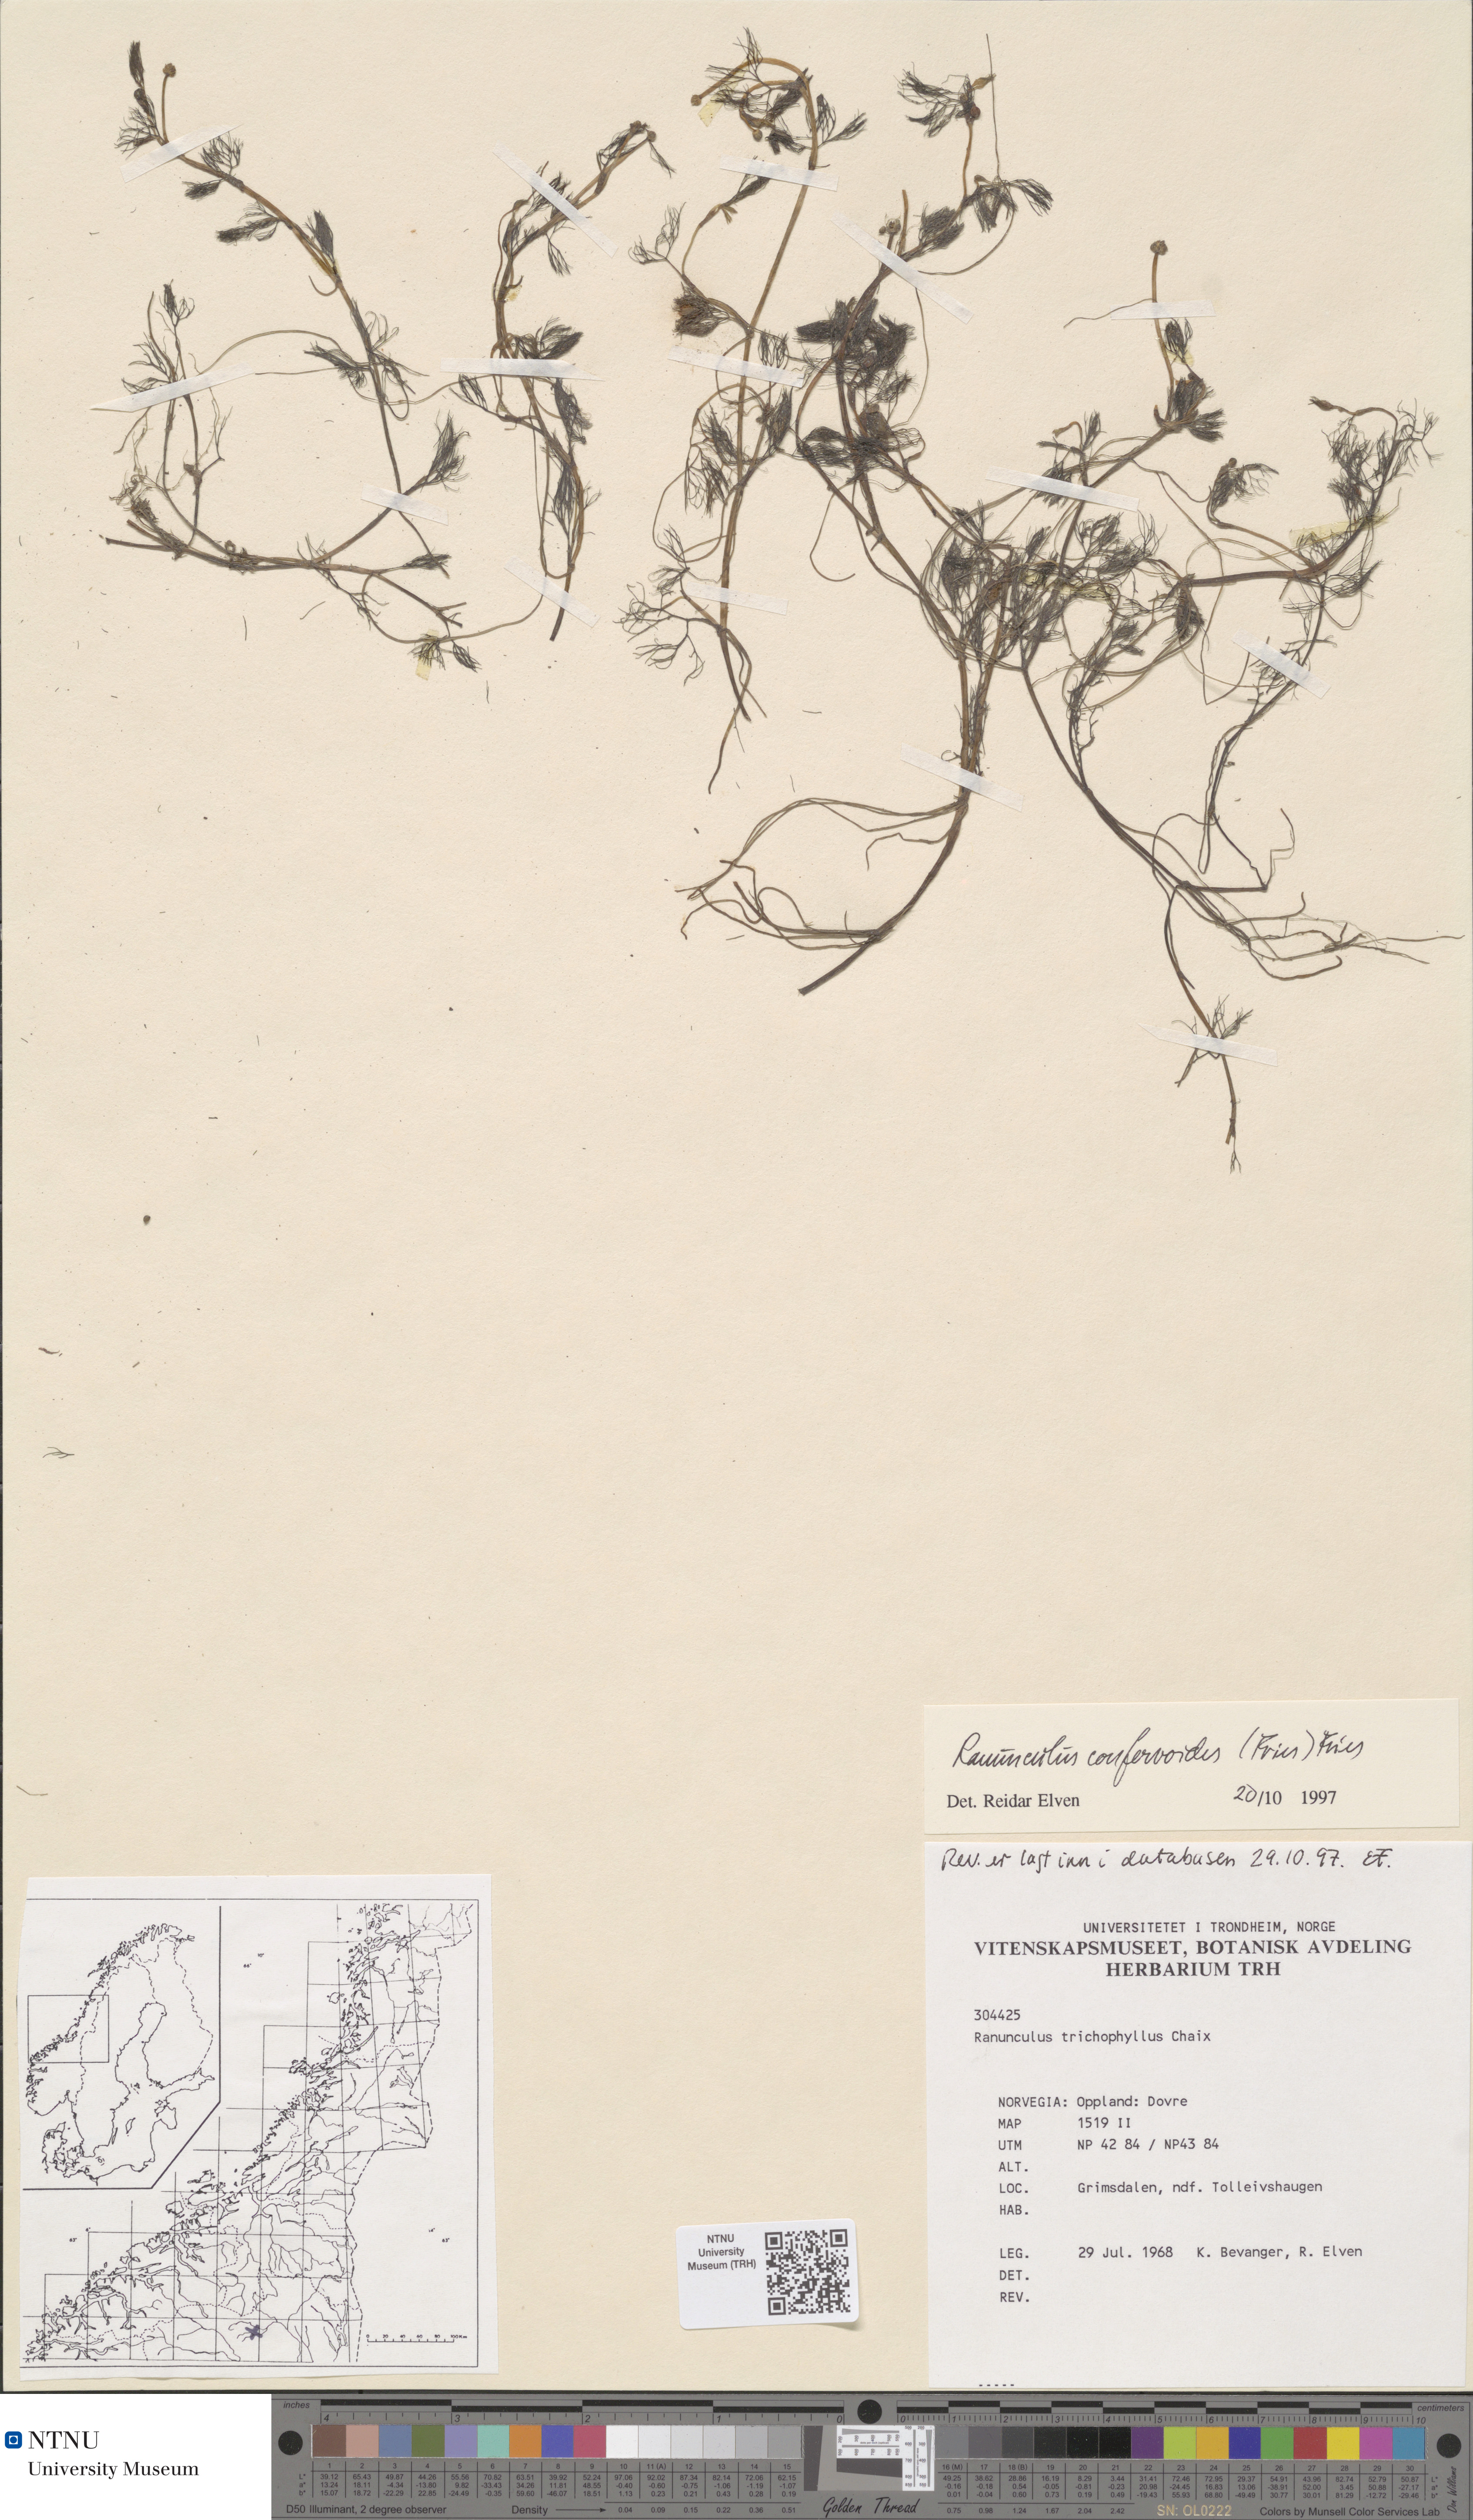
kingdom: Plantae
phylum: Tracheophyta
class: Magnoliopsida
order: Ranunculales
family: Ranunculaceae
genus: Ranunculus
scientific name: Ranunculus confervoides
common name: Delicate buttercup
